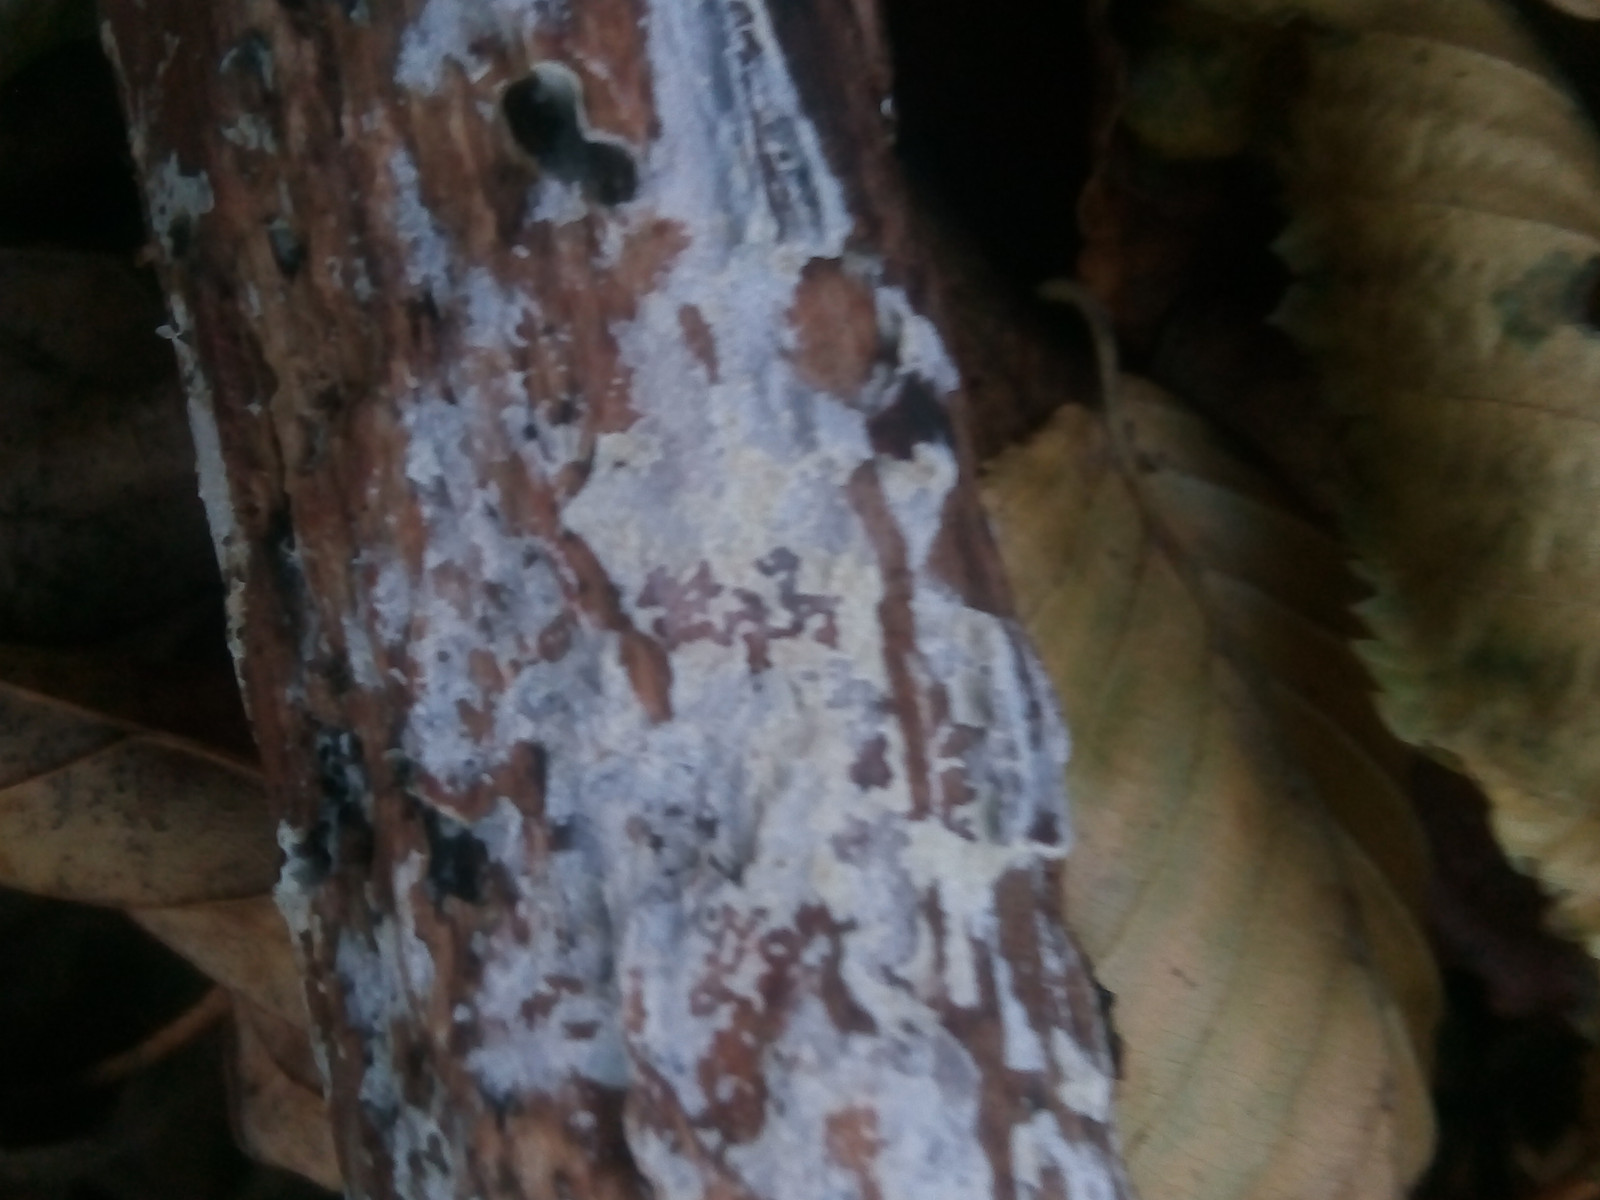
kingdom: Fungi
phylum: Basidiomycota
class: Agaricomycetes
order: Corticiales
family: Corticiaceae
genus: Lyomyces
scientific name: Lyomyces sambuci
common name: almindelig hyldehinde
